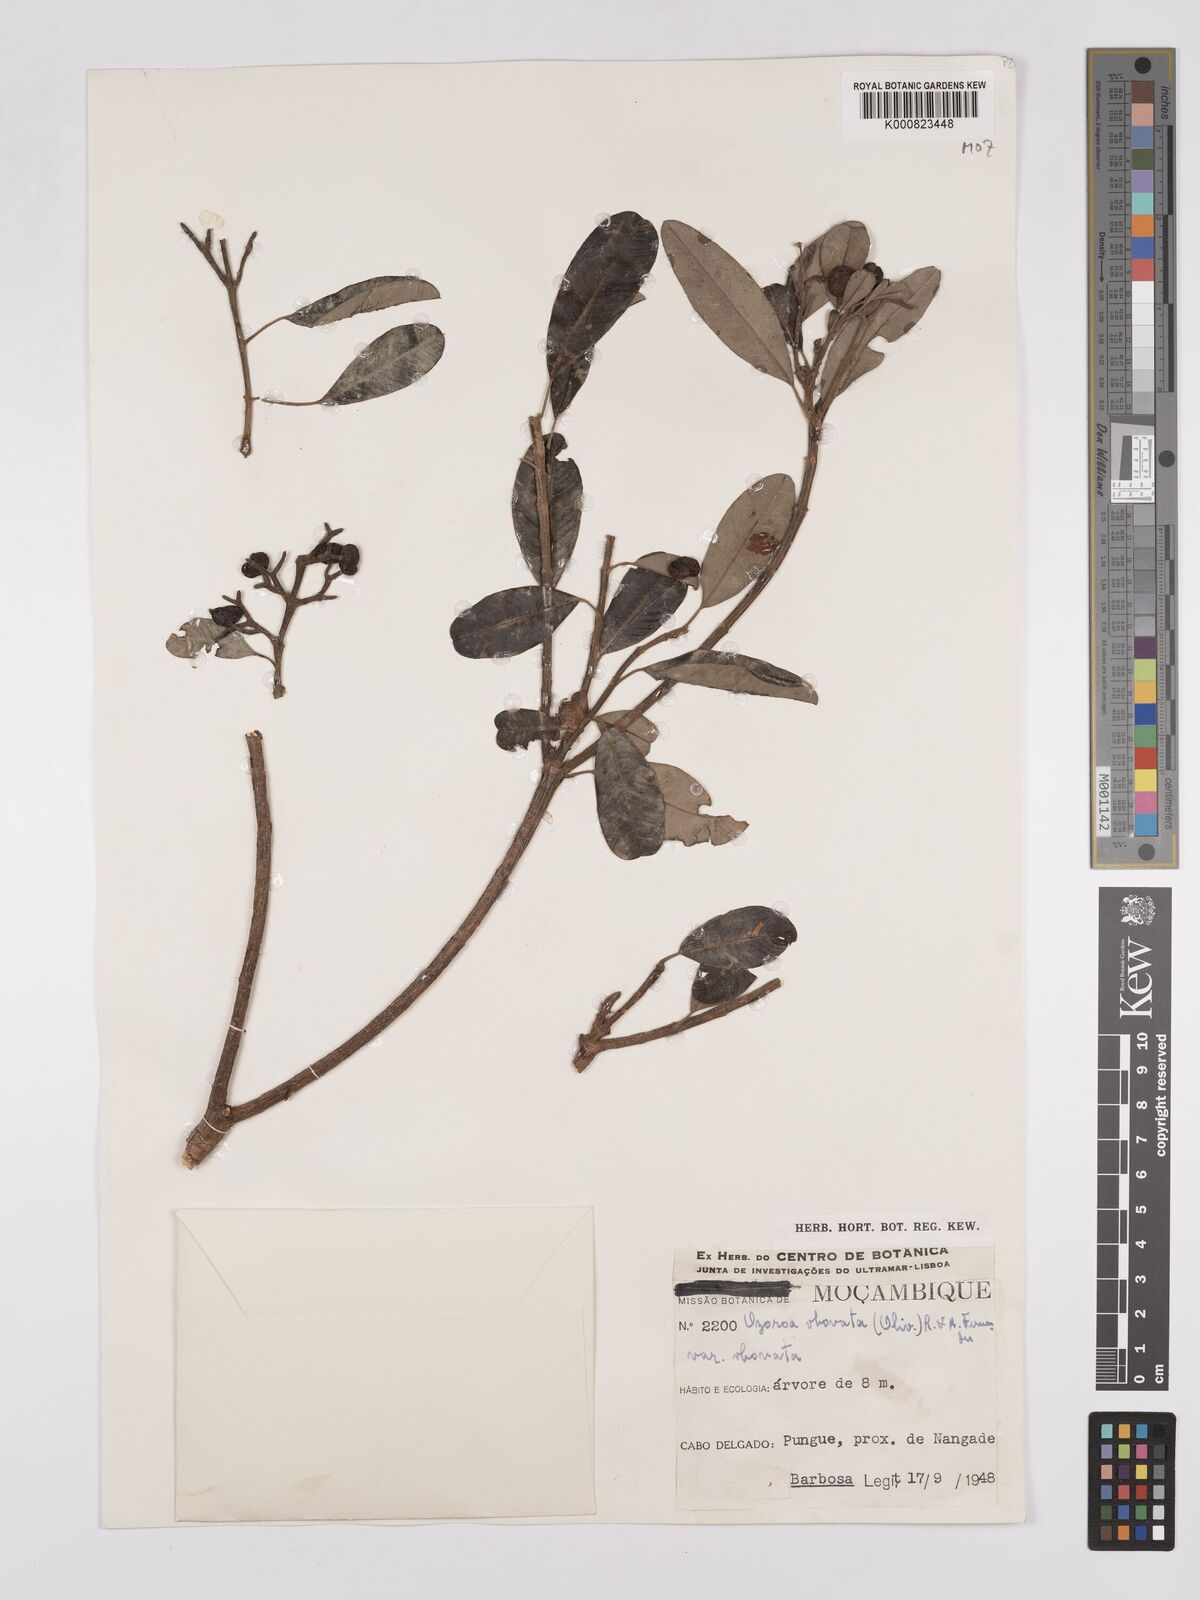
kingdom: Plantae
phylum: Tracheophyta
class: Magnoliopsida
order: Sapindales
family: Anacardiaceae
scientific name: Anacardiaceae
